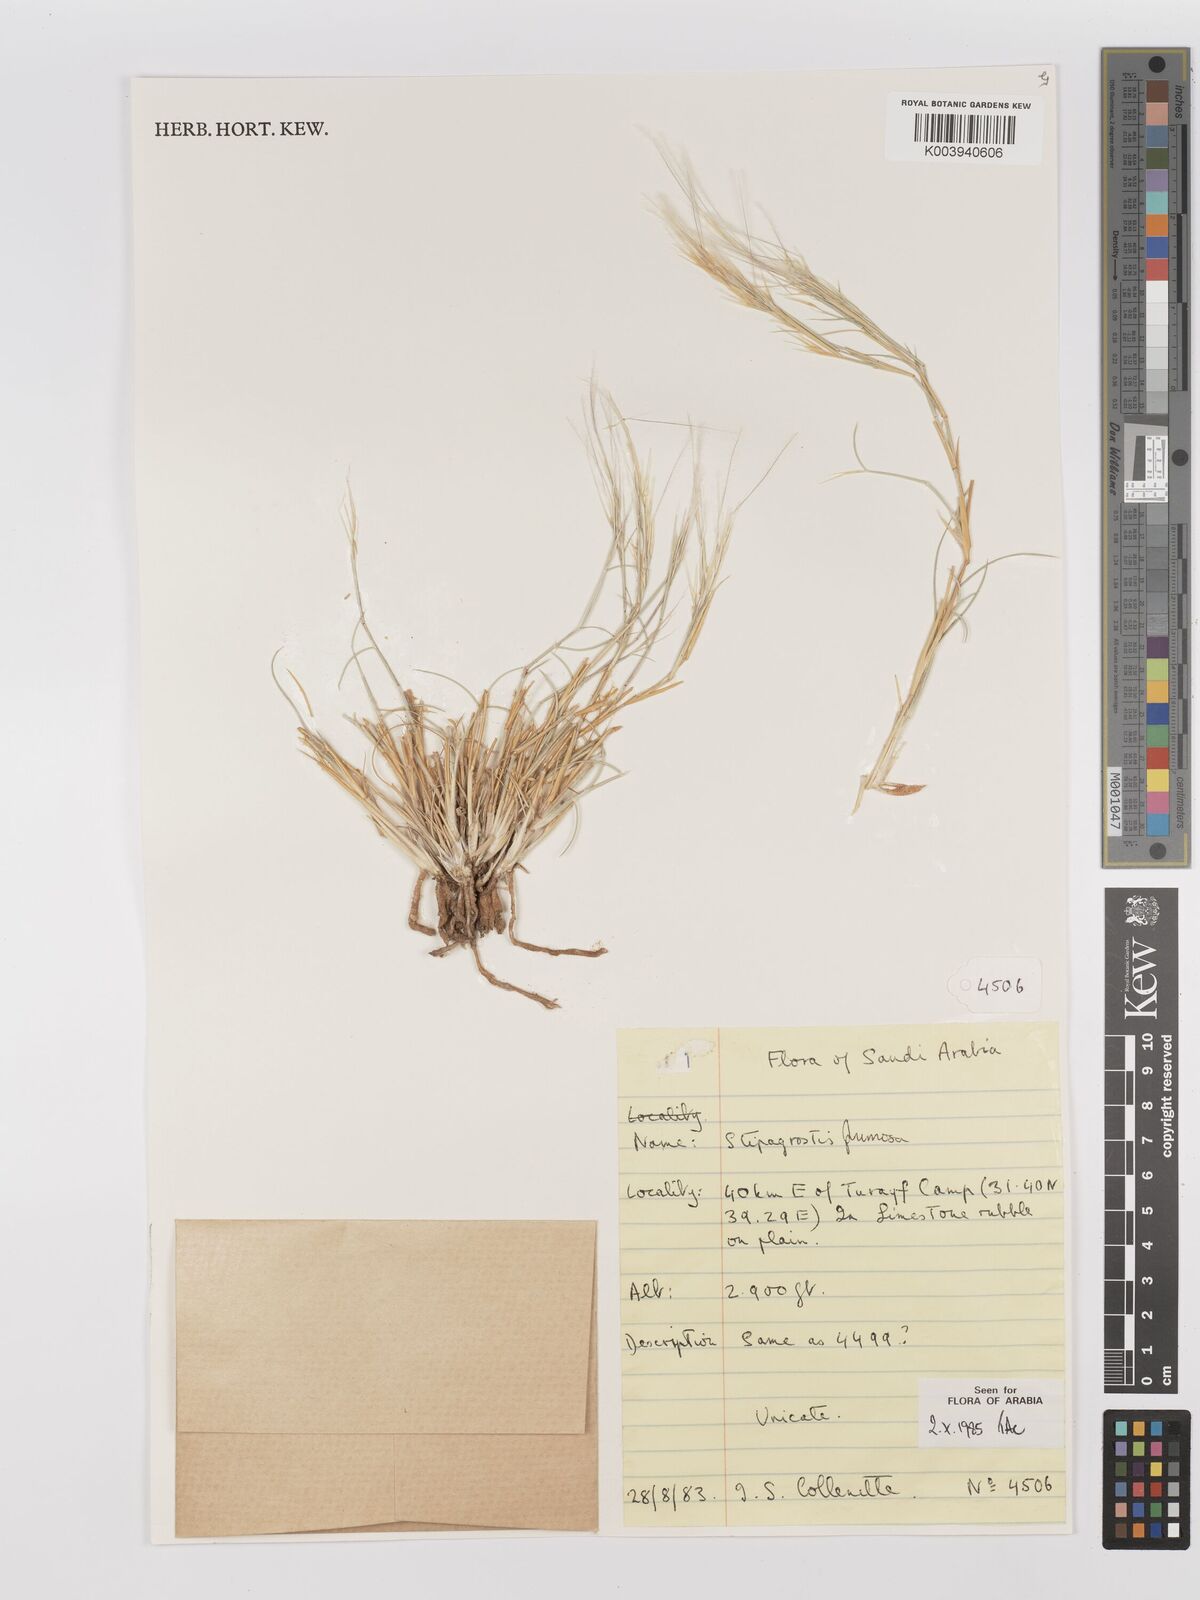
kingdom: Plantae
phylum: Tracheophyta
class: Liliopsida
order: Poales
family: Poaceae
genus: Stipagrostis
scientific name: Stipagrostis plumosa
